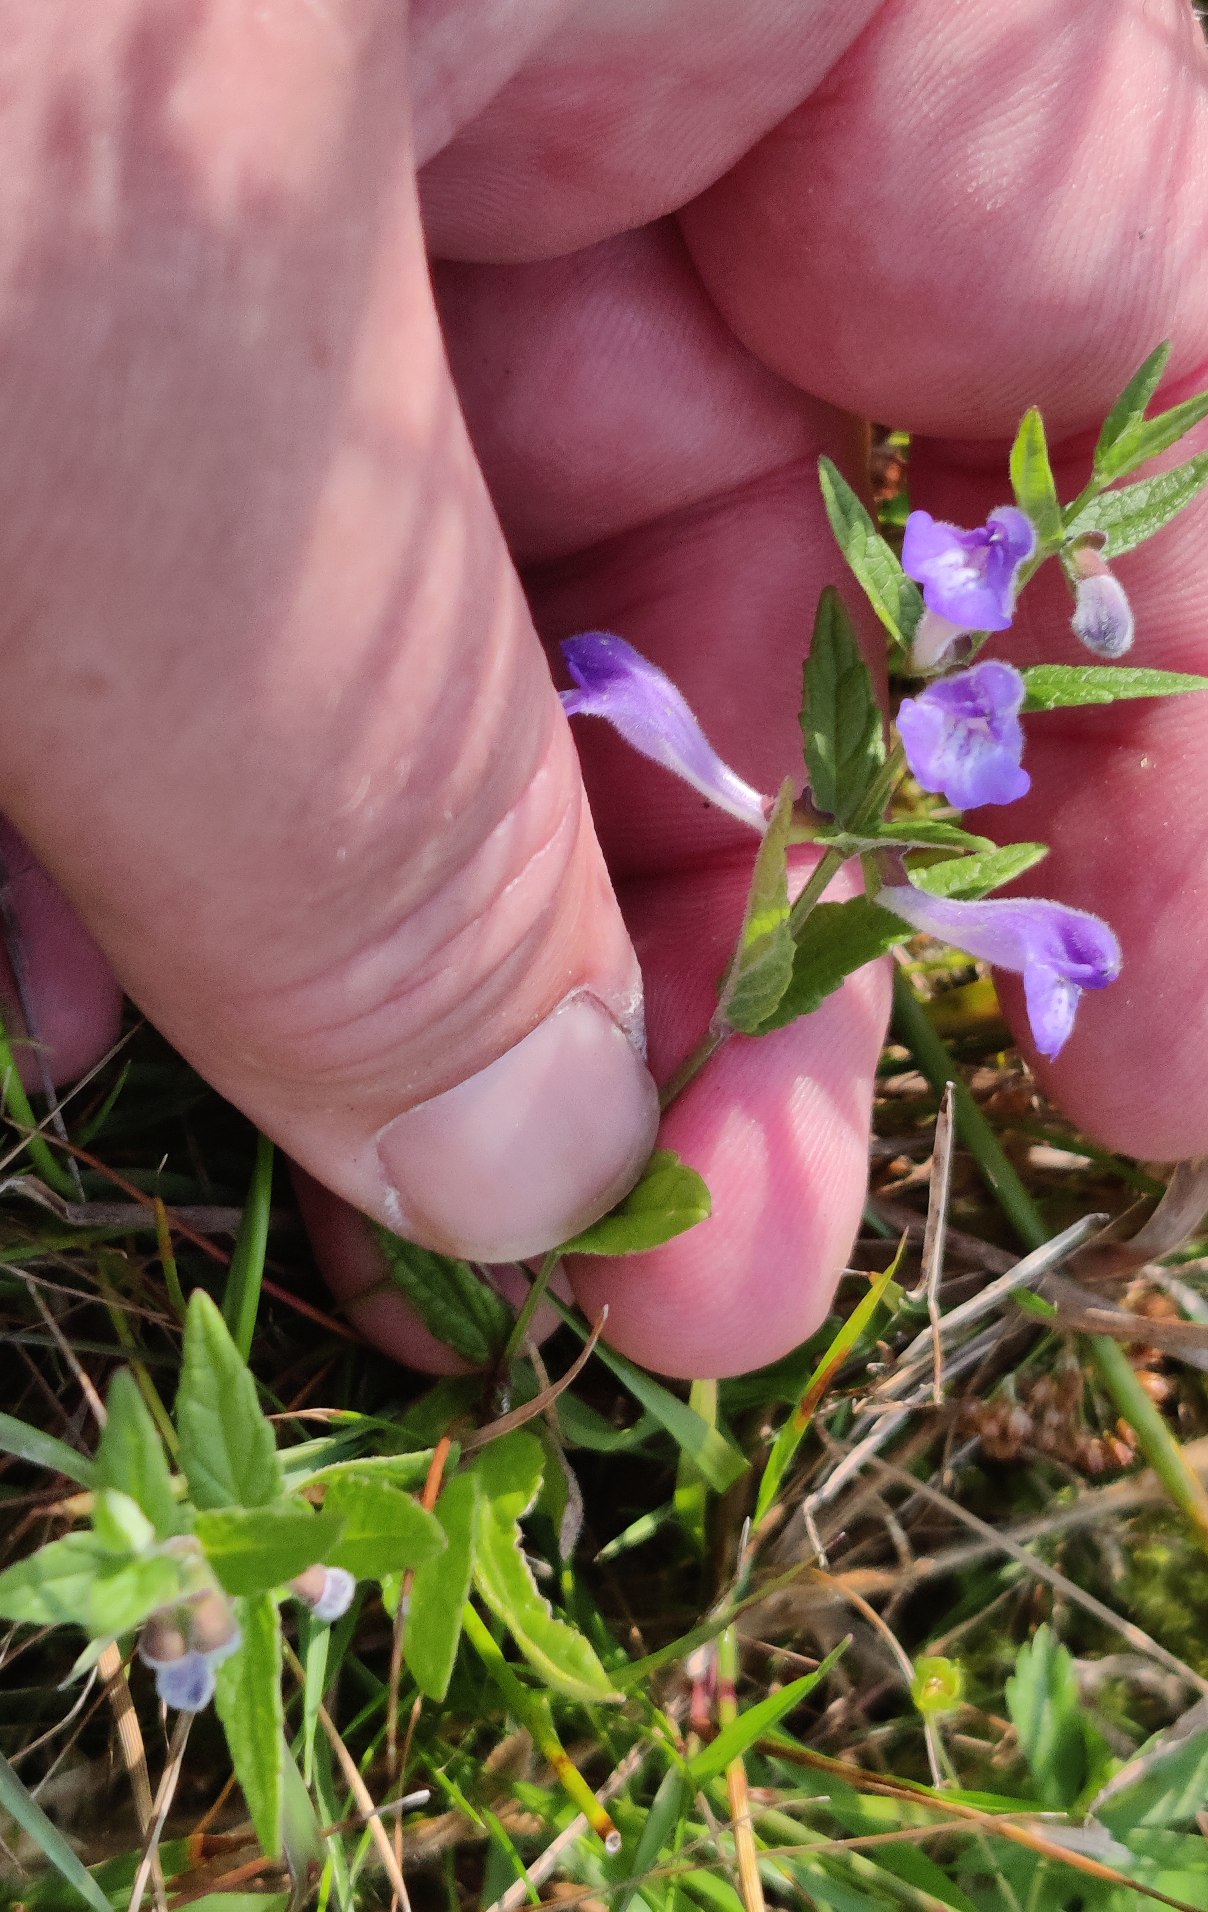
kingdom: Plantae
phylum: Tracheophyta
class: Magnoliopsida
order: Lamiales
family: Lamiaceae
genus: Scutellaria
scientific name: Scutellaria galericulata
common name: Almindelig skjolddrager
